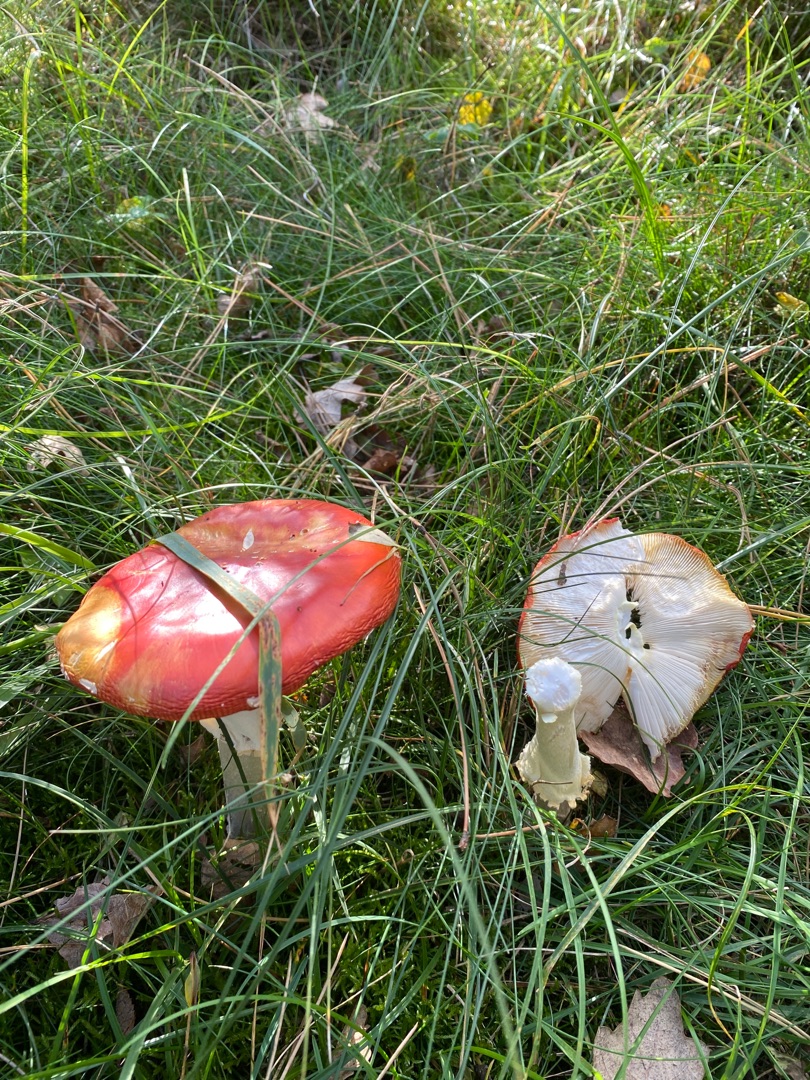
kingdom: Fungi
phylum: Basidiomycota
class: Agaricomycetes
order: Agaricales
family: Amanitaceae
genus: Amanita
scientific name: Amanita muscaria
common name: Rød fluesvamp
